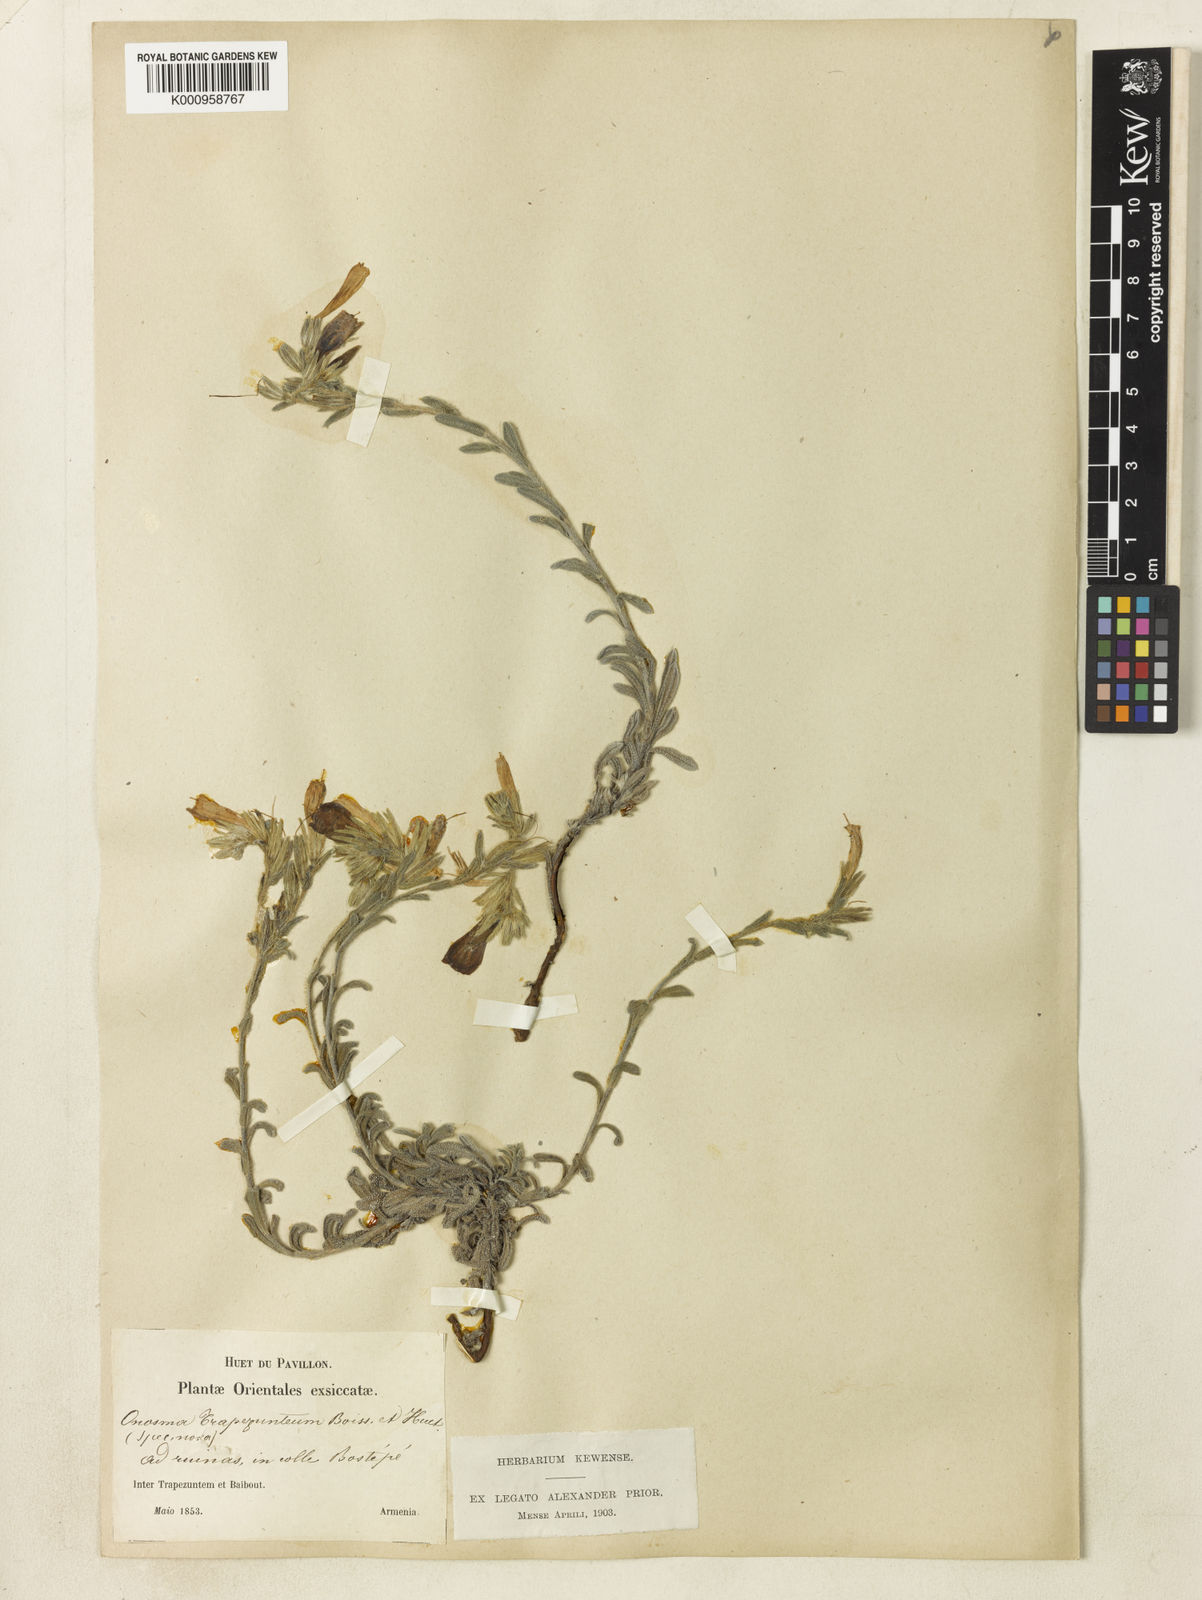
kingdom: Plantae
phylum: Tracheophyta
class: Magnoliopsida
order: Boraginales
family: Boraginaceae
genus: Onosma
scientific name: Onosma aucheriana
